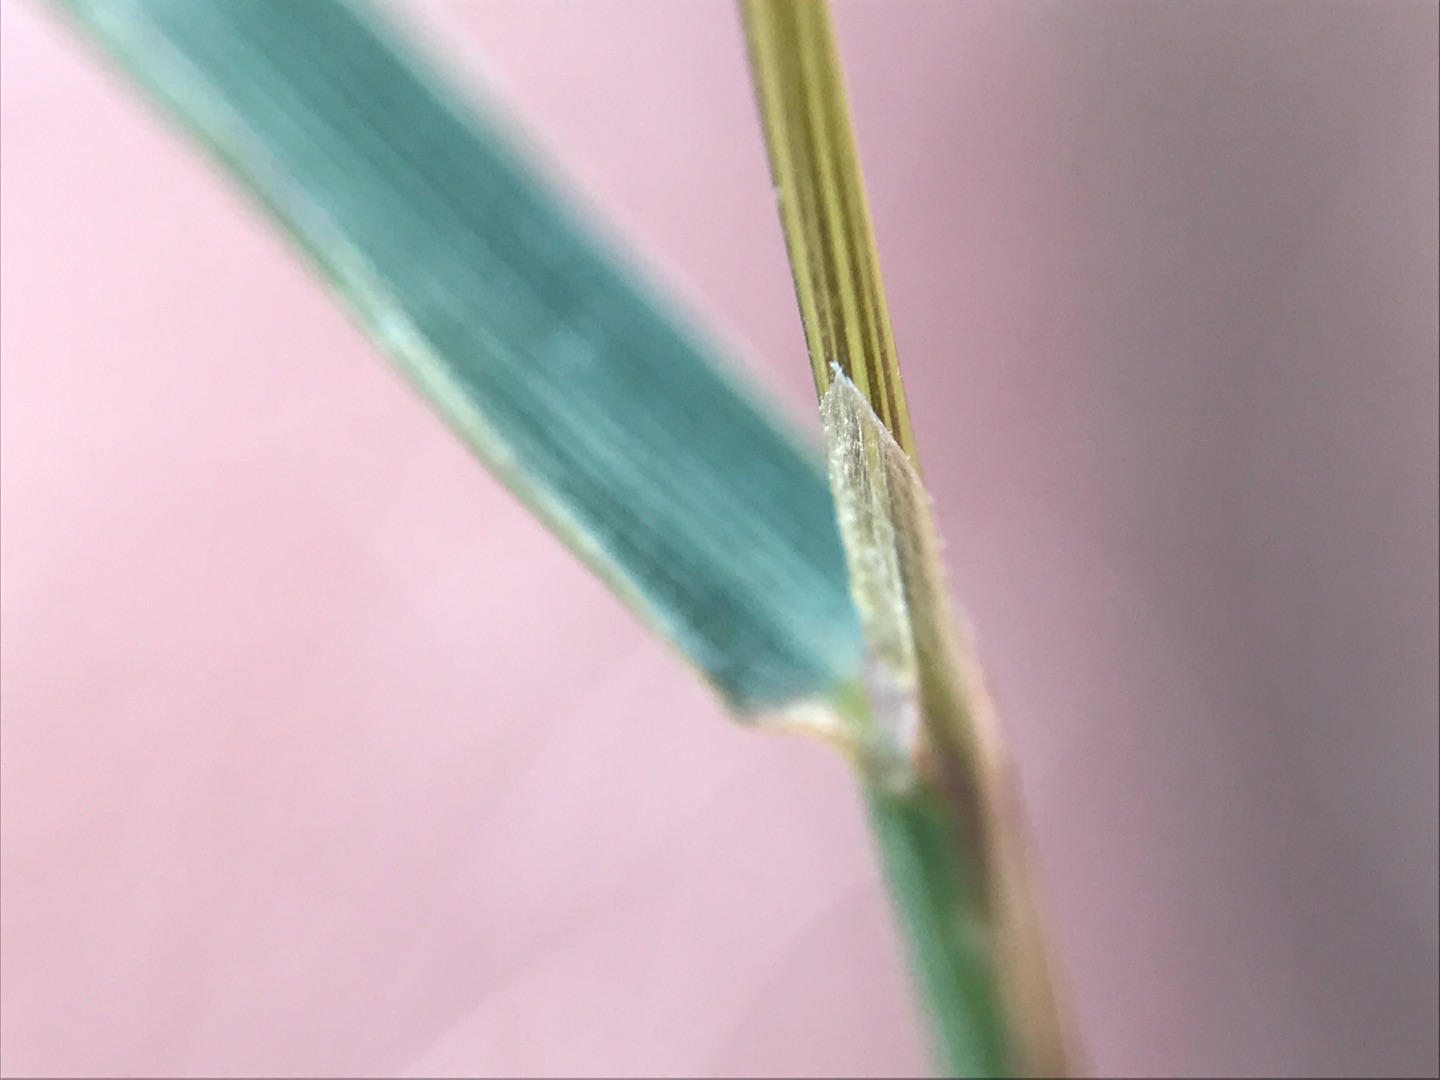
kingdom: Plantae
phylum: Tracheophyta
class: Liliopsida
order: Poales
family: Poaceae
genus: Agrostis
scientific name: Agrostis gigantea
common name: Stortoppet hvene
